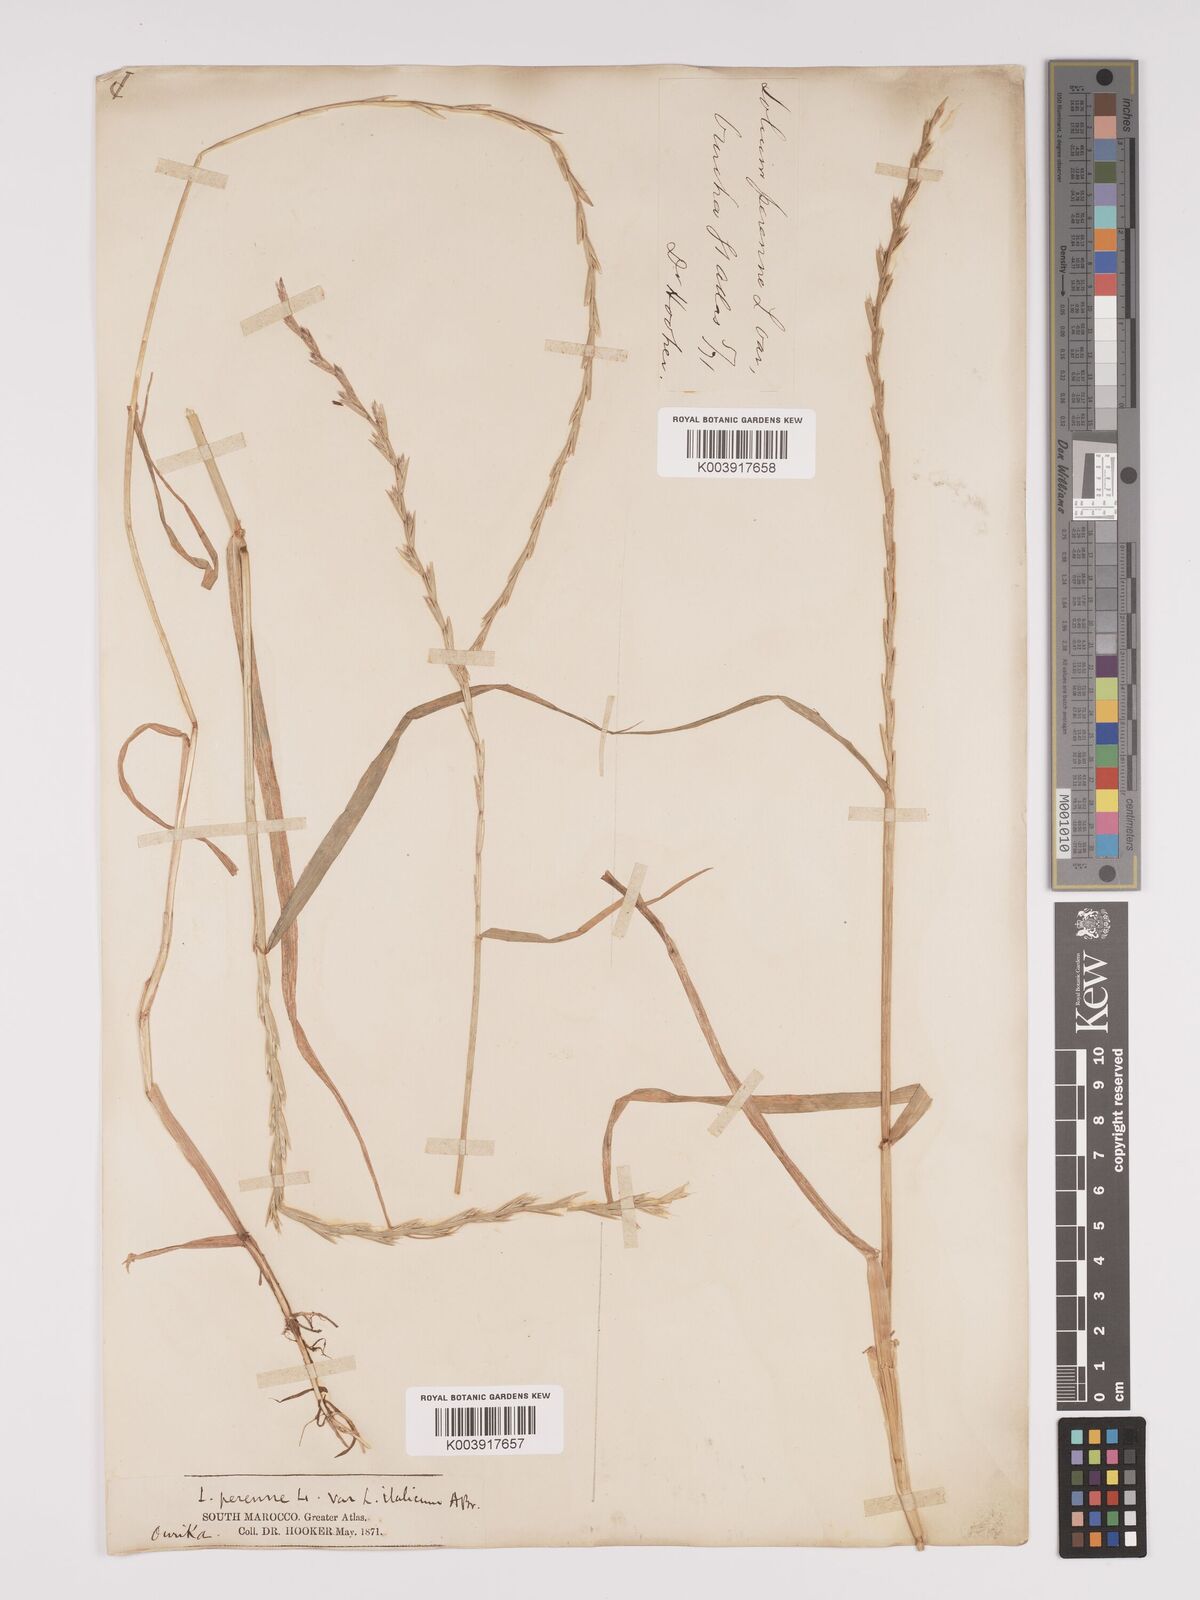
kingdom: Plantae
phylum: Tracheophyta
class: Liliopsida
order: Poales
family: Poaceae
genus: Lolium
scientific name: Lolium multiflorum
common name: Annual ryegrass
